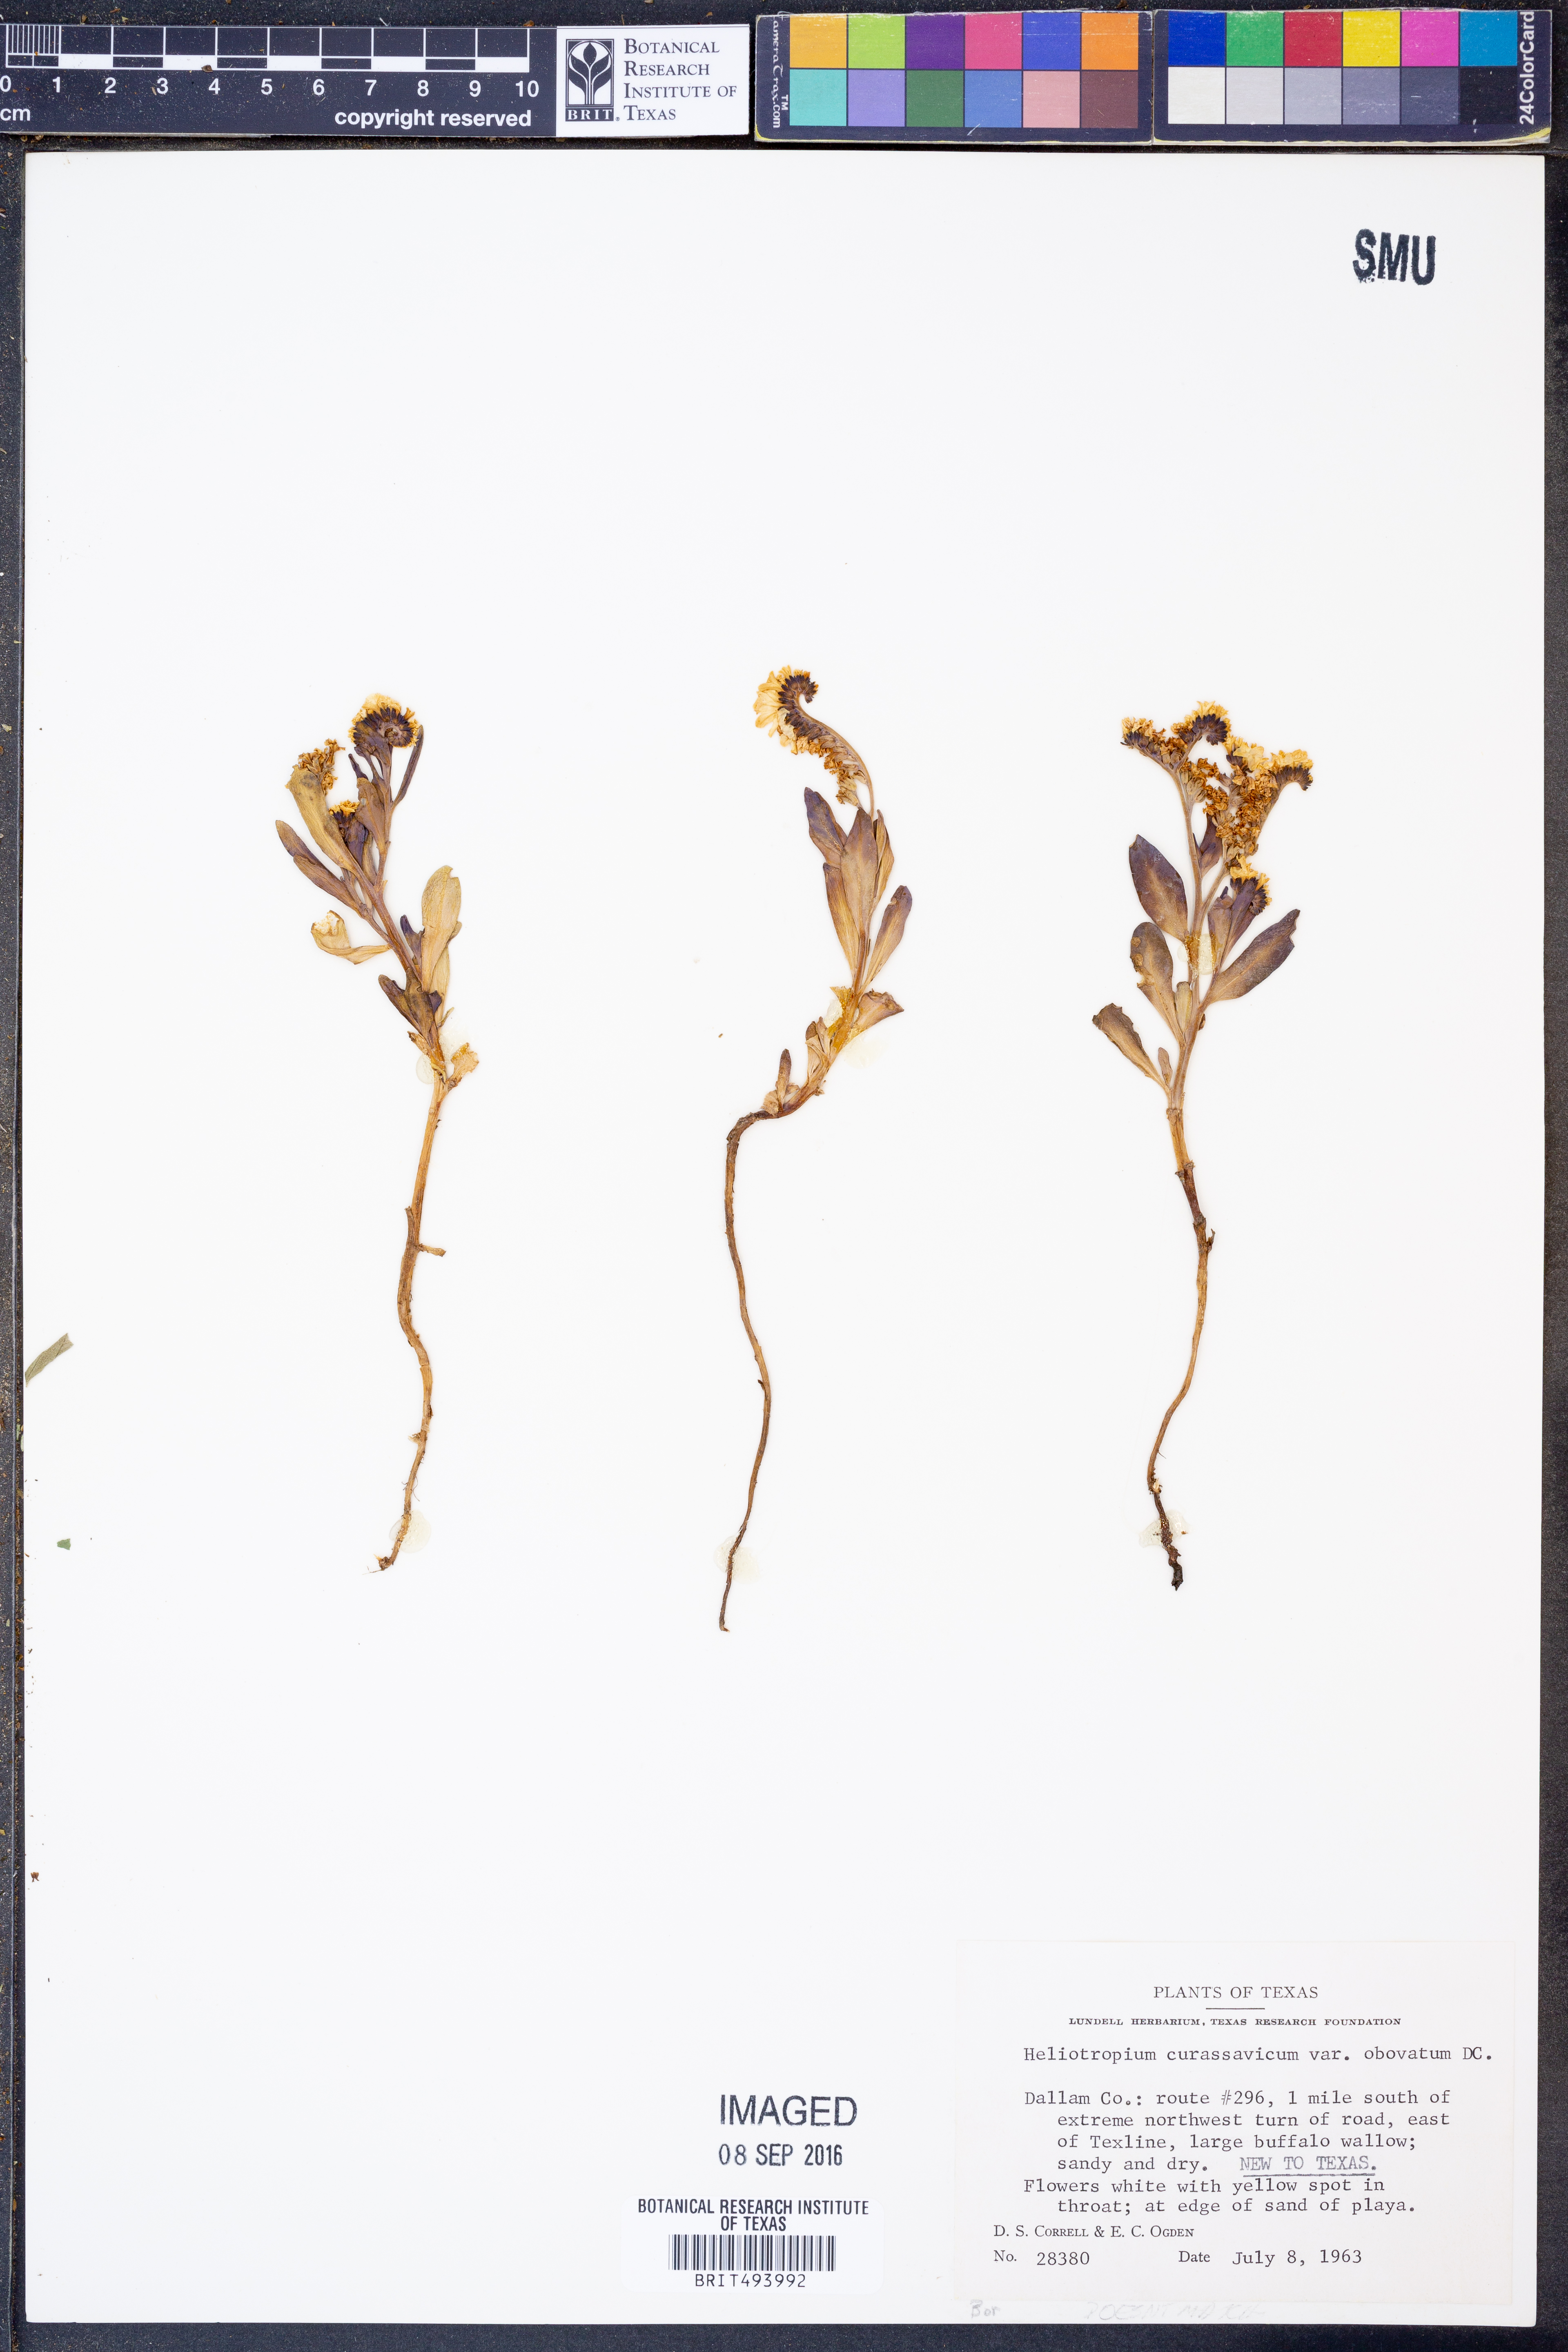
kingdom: Plantae
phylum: Tracheophyta
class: Magnoliopsida
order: Boraginales
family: Heliotropiaceae
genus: Heliotropium
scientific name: Heliotropium curassavicum
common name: Seaside heliotrope
